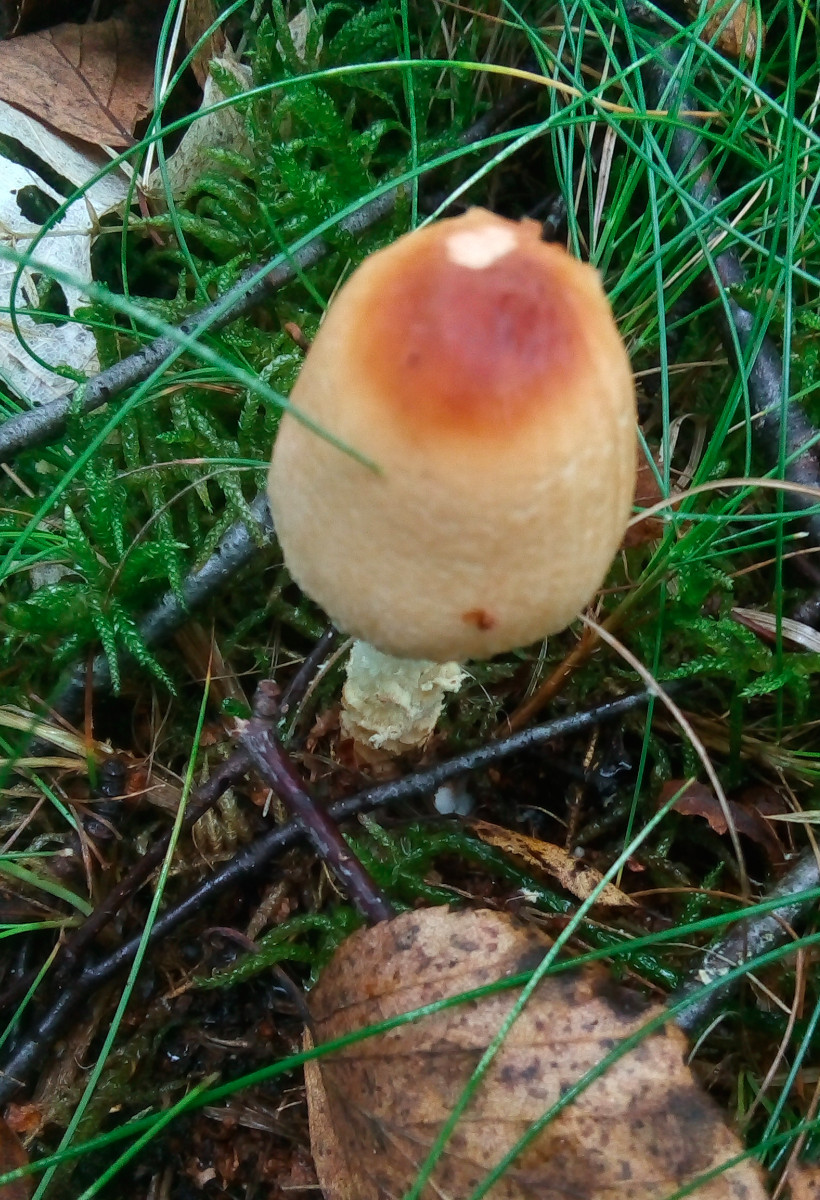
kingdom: Fungi
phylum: Basidiomycota
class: Agaricomycetes
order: Agaricales
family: Agaricaceae
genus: Lepiota
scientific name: Lepiota magnispora
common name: gulfnugget parasolhat
